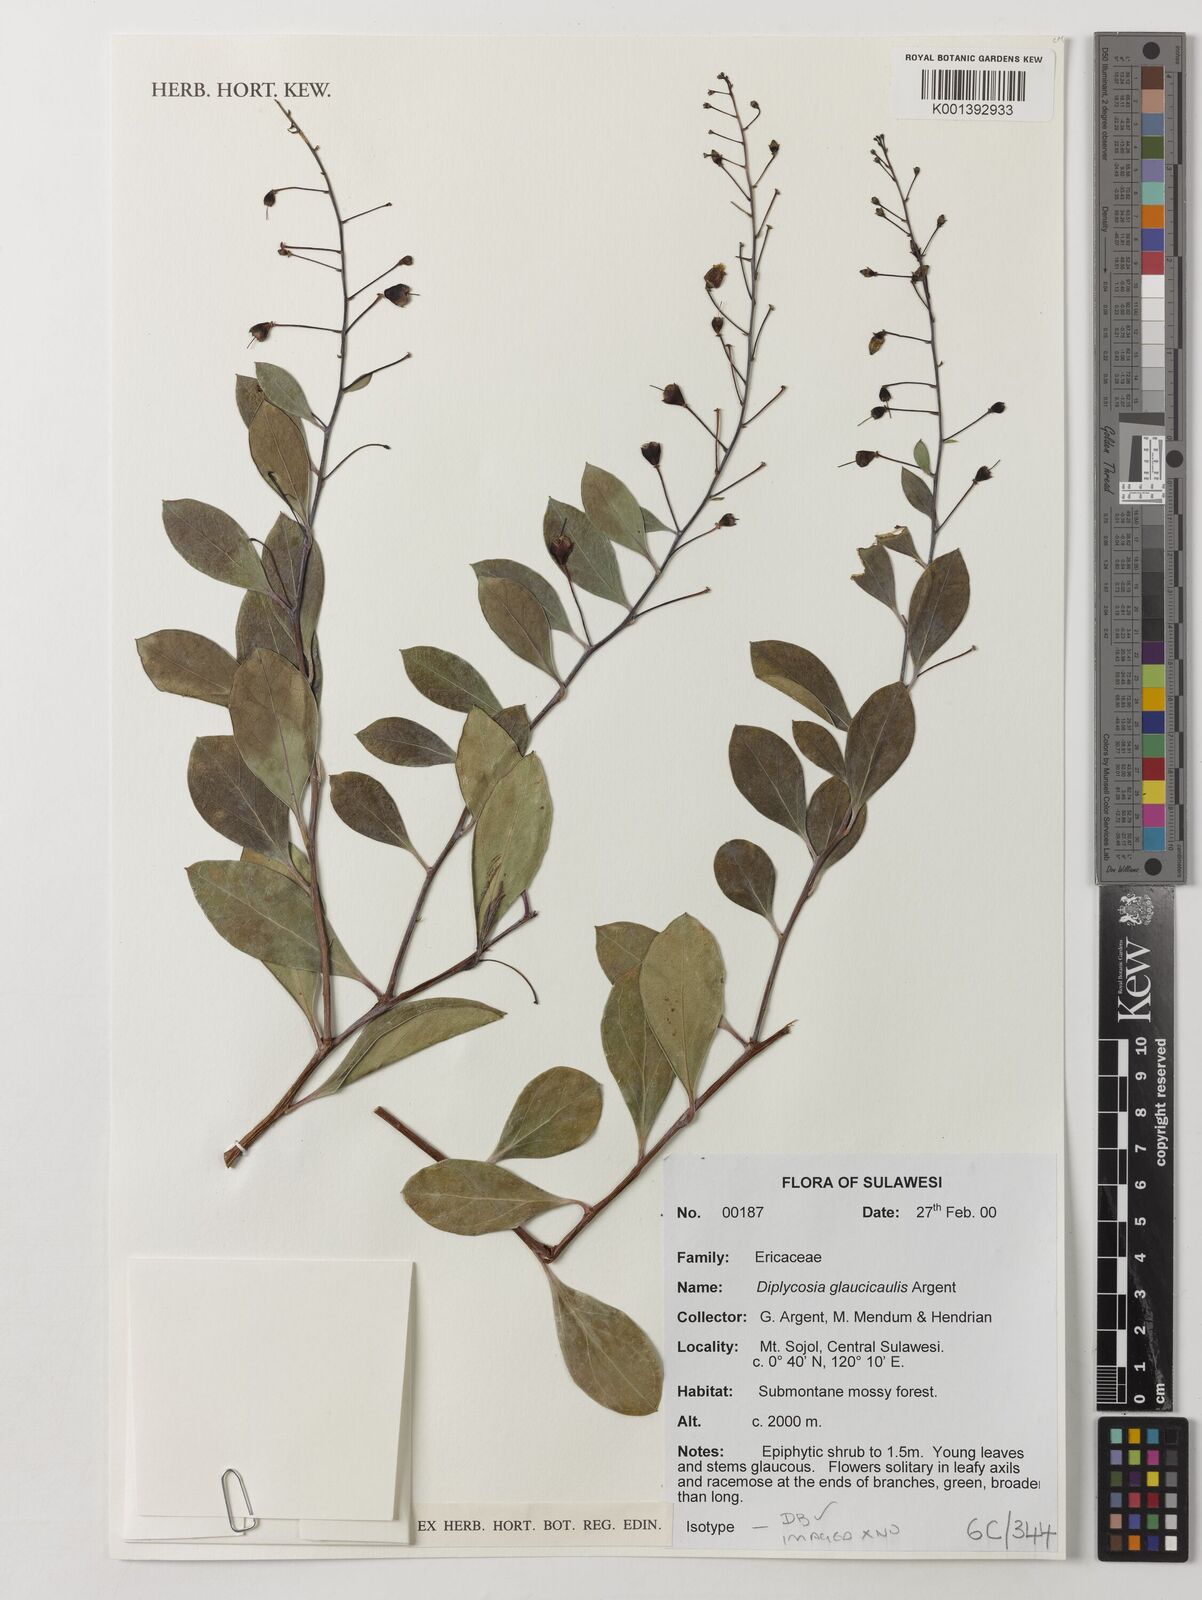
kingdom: Plantae
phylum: Tracheophyta
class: Magnoliopsida
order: Ericales
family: Ericaceae
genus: Gaultheria
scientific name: Gaultheria glaucicaulis
